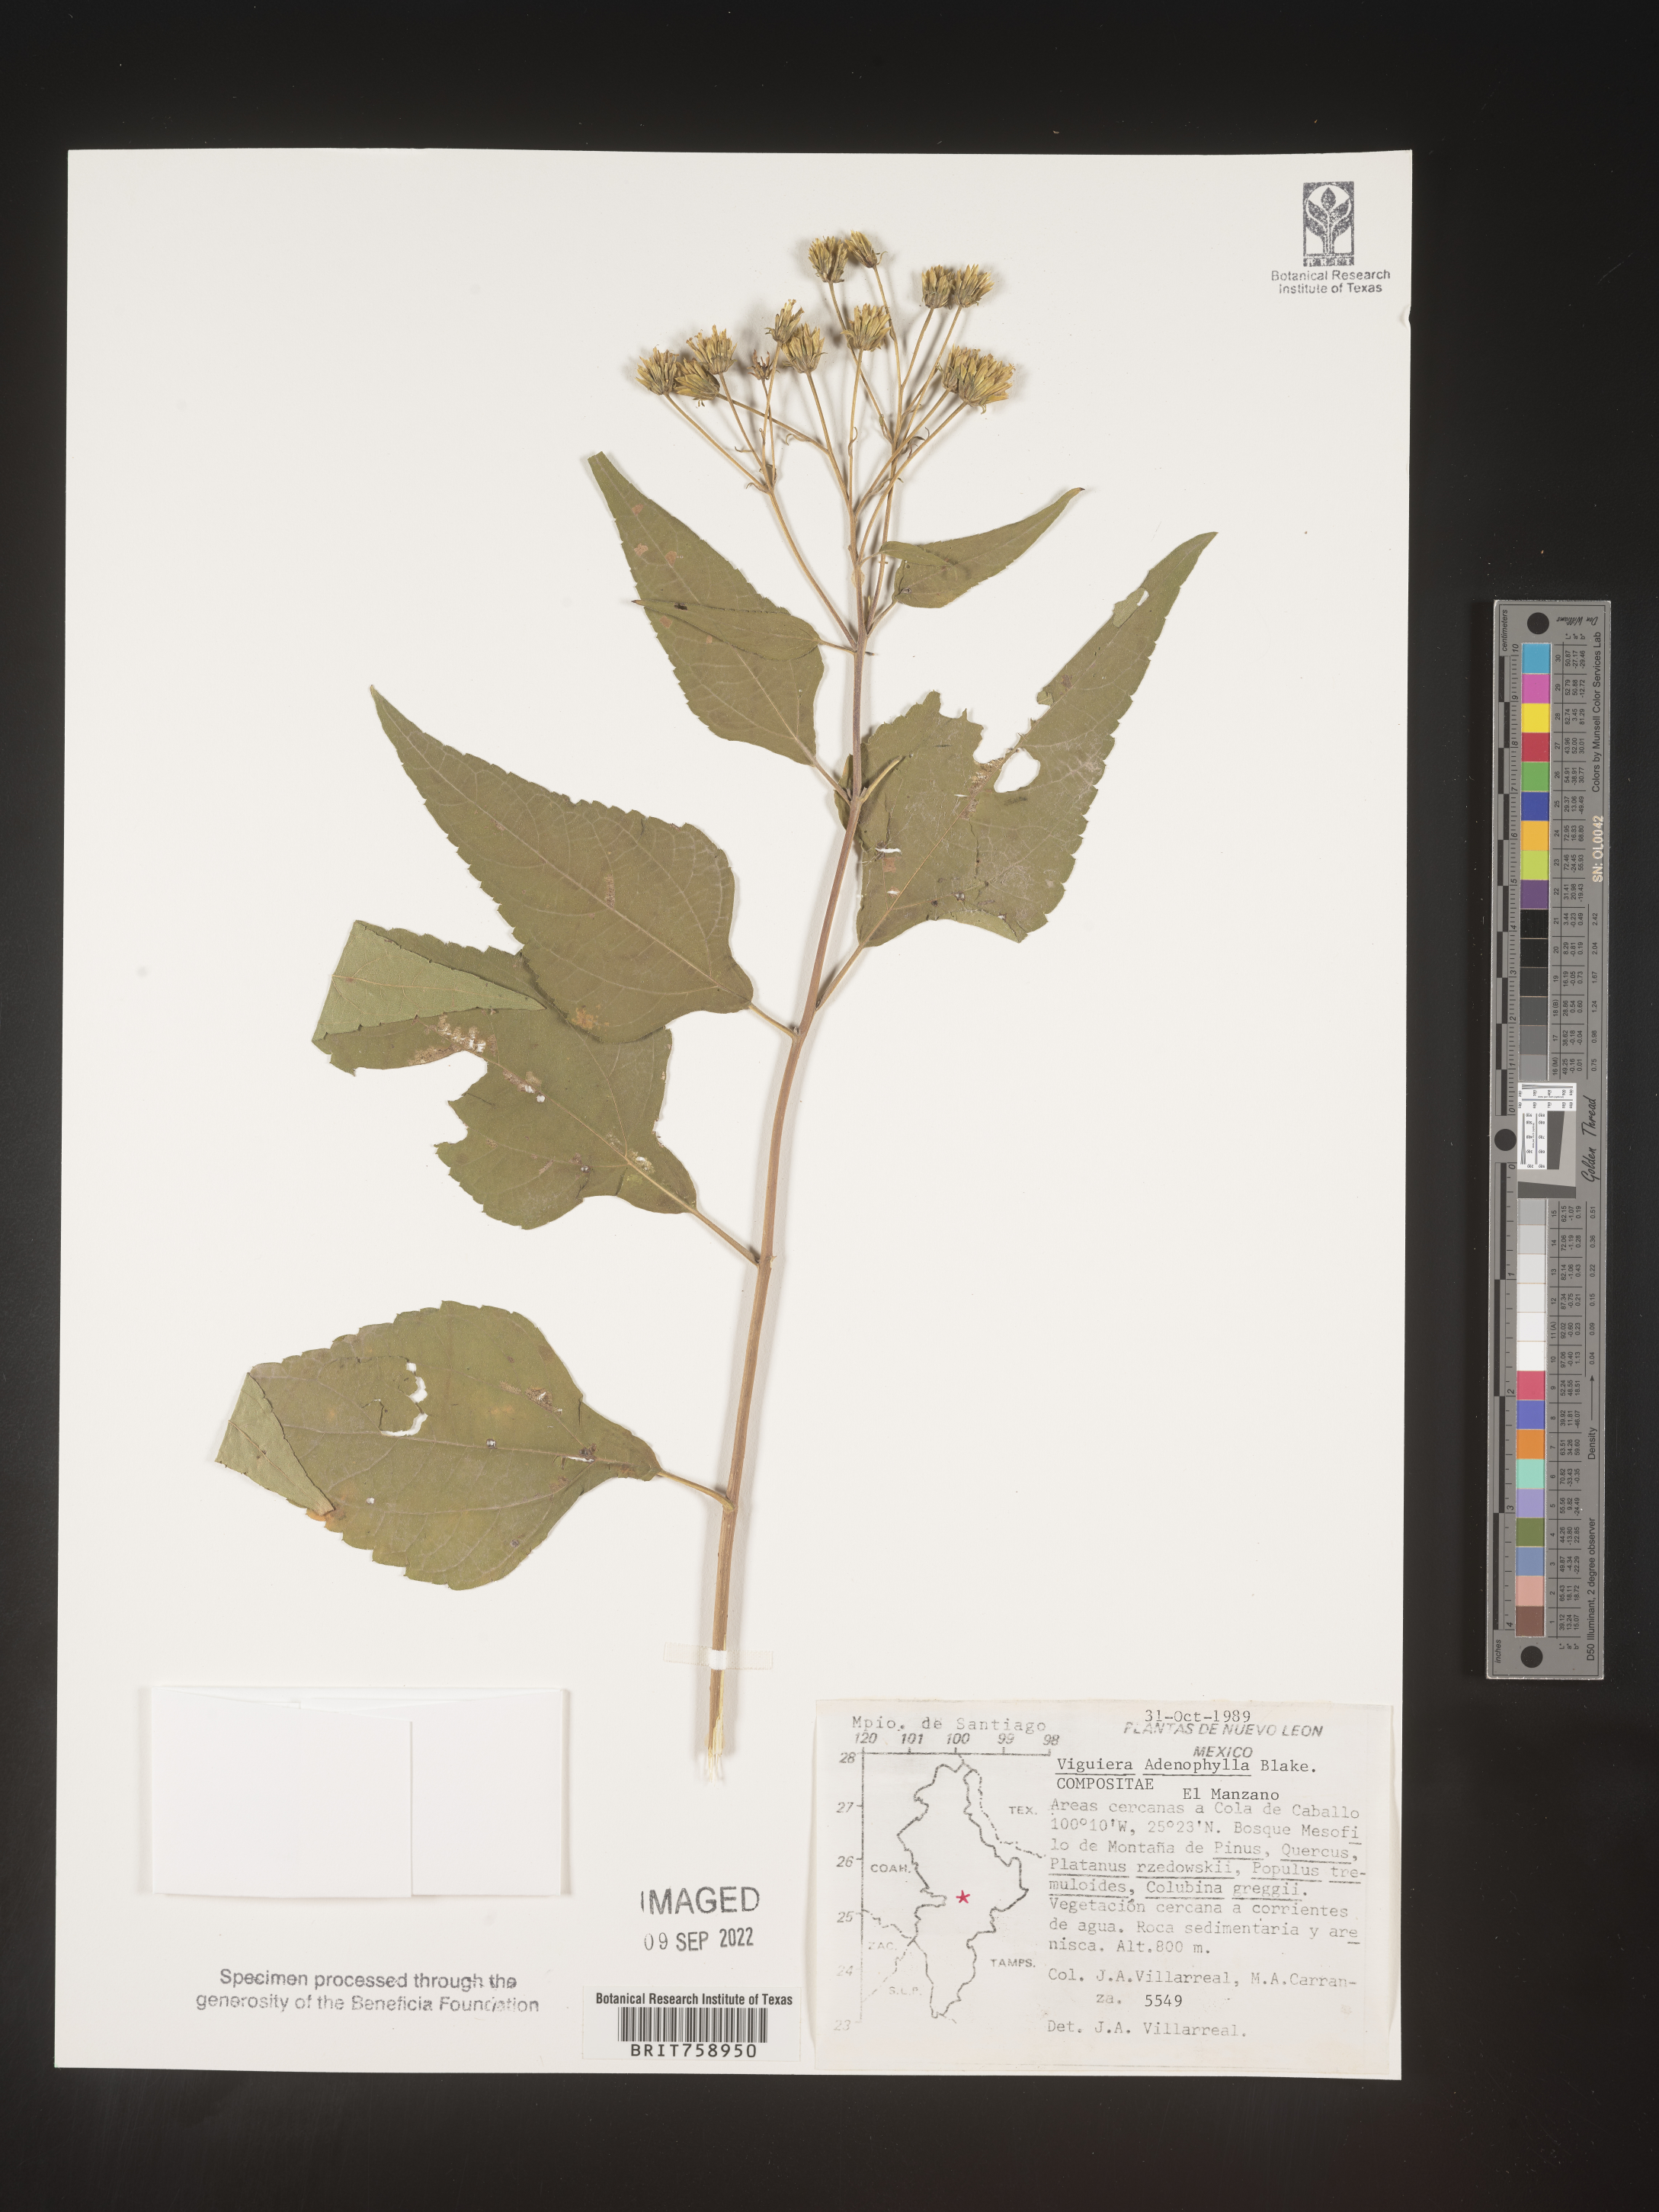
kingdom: Plantae
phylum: Tracheophyta
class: Magnoliopsida
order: Asterales
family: Asteraceae
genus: Viguiera
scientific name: Viguiera
